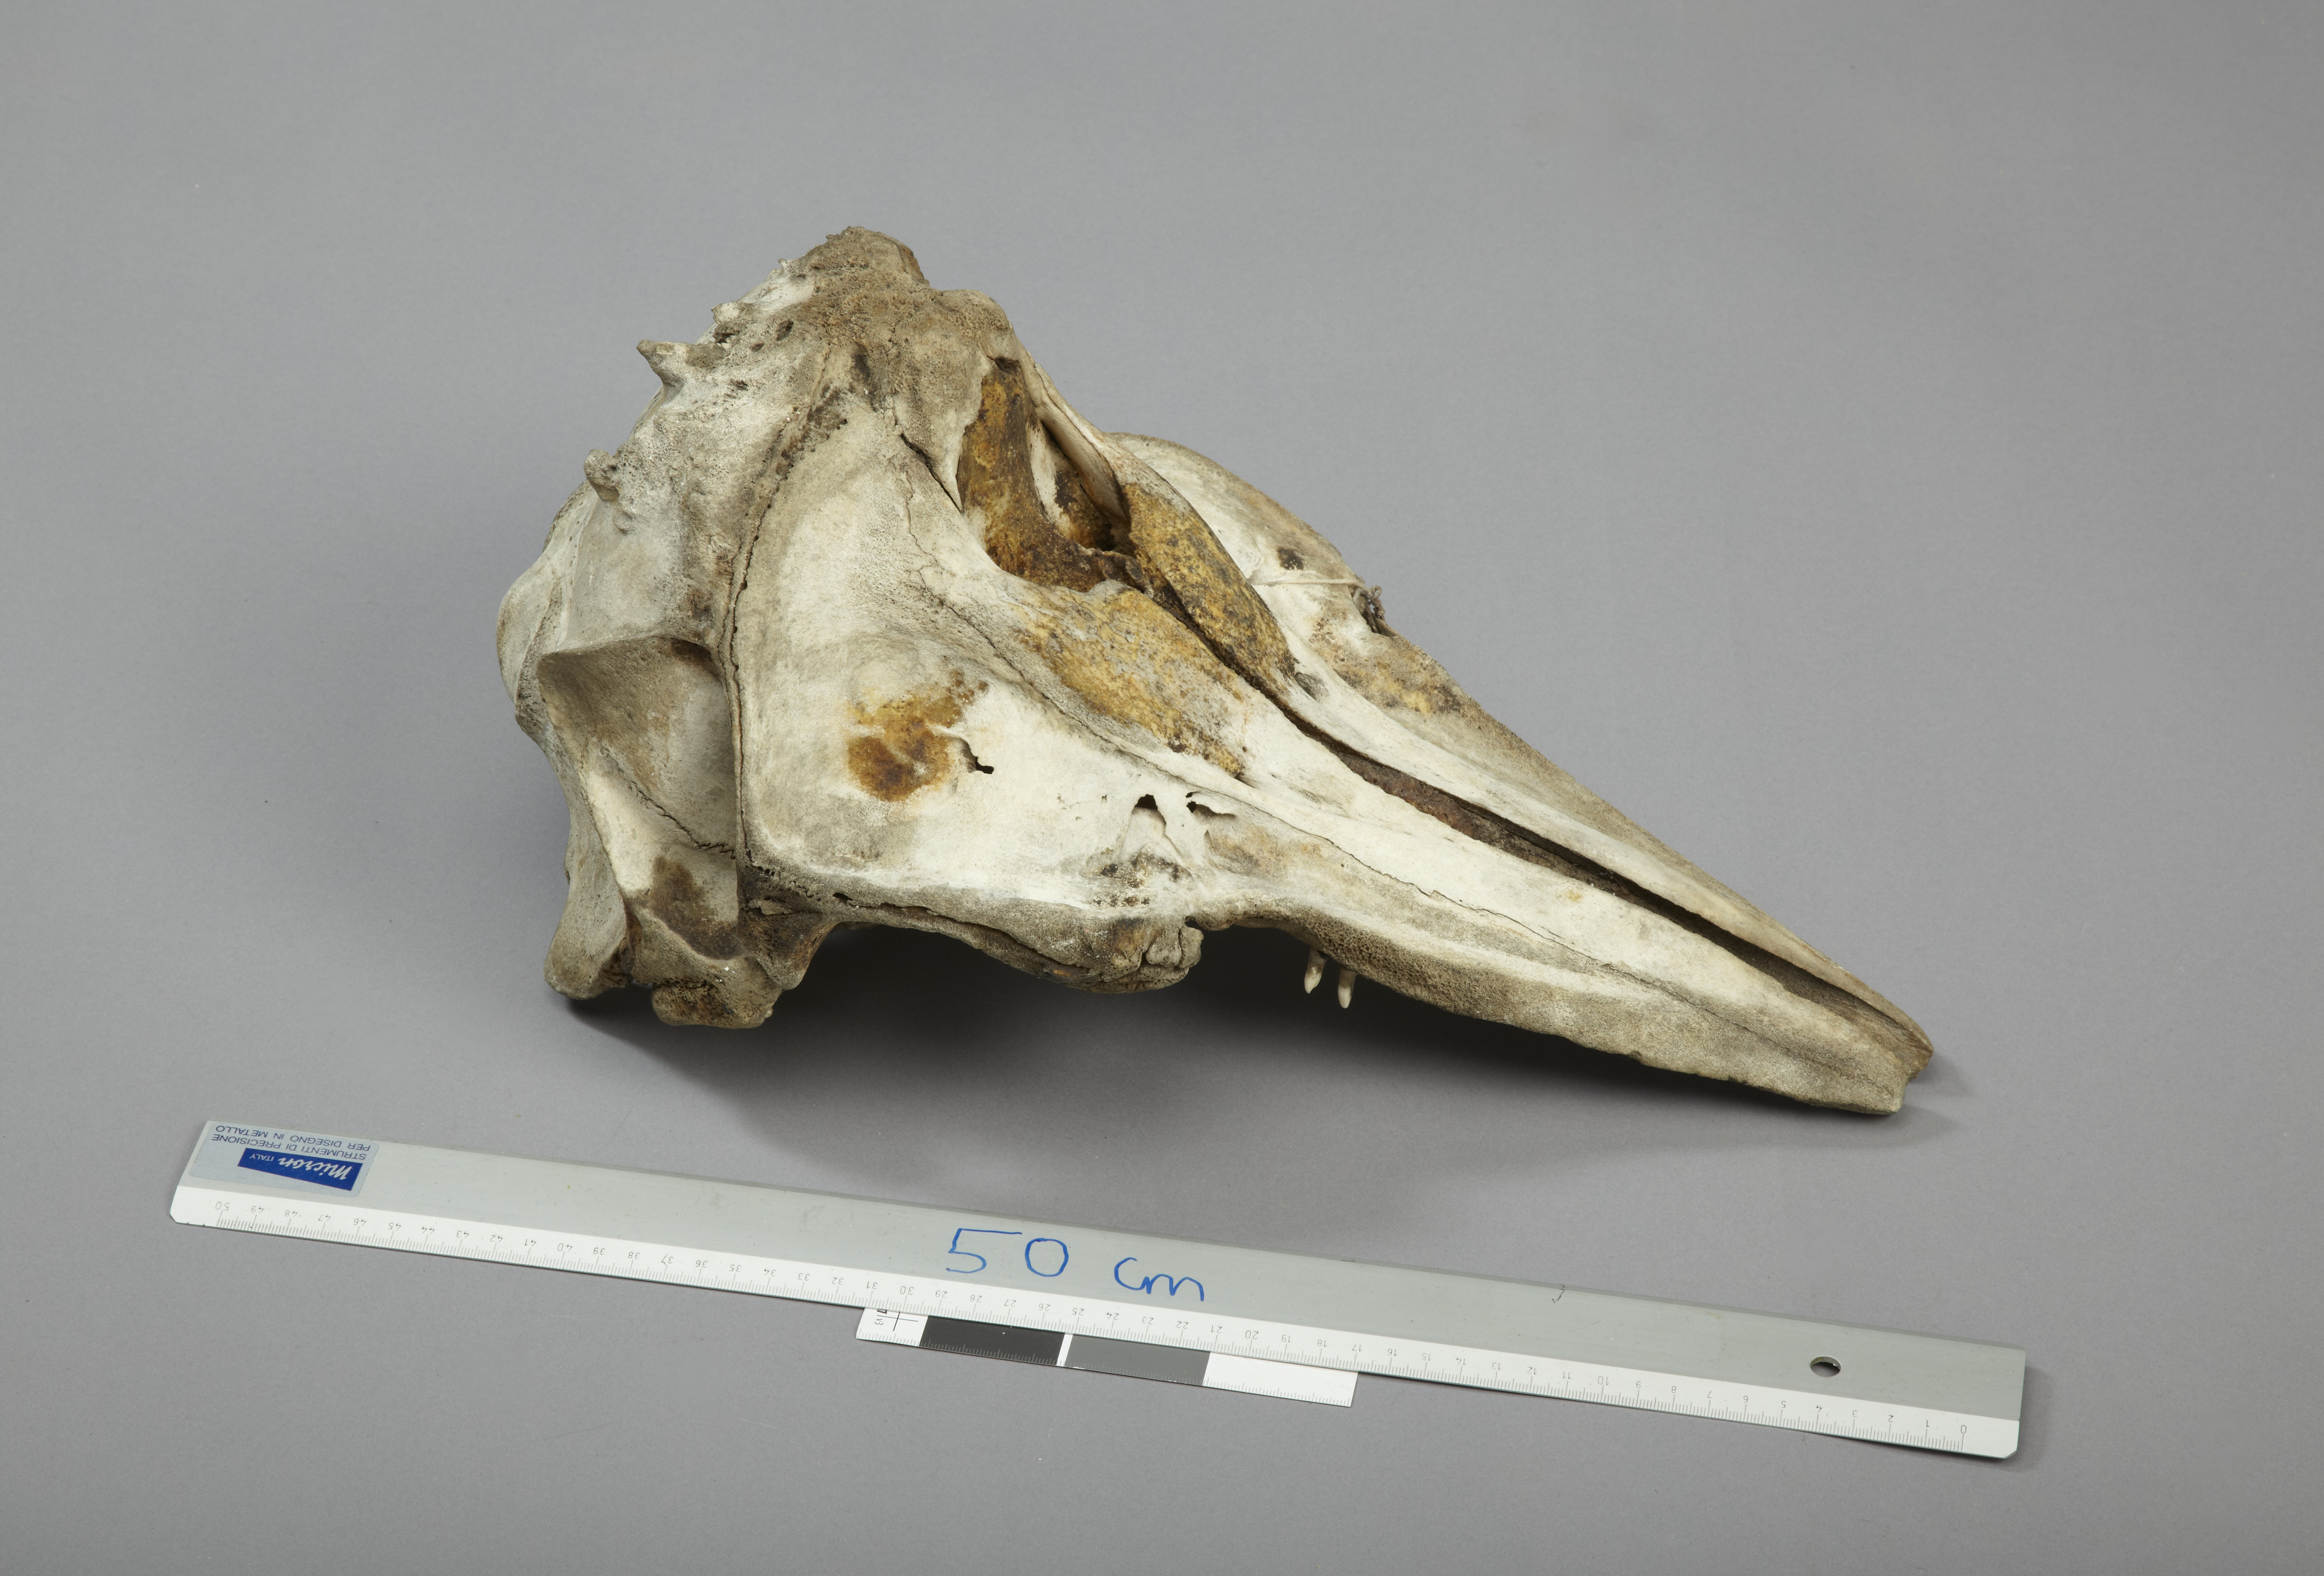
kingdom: Animalia
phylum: Chordata
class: Mammalia
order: Cetacea
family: Delphinidae
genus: Lagenorhynchus
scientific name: Lagenorhynchus albirostris
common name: White-beaked dolphin
